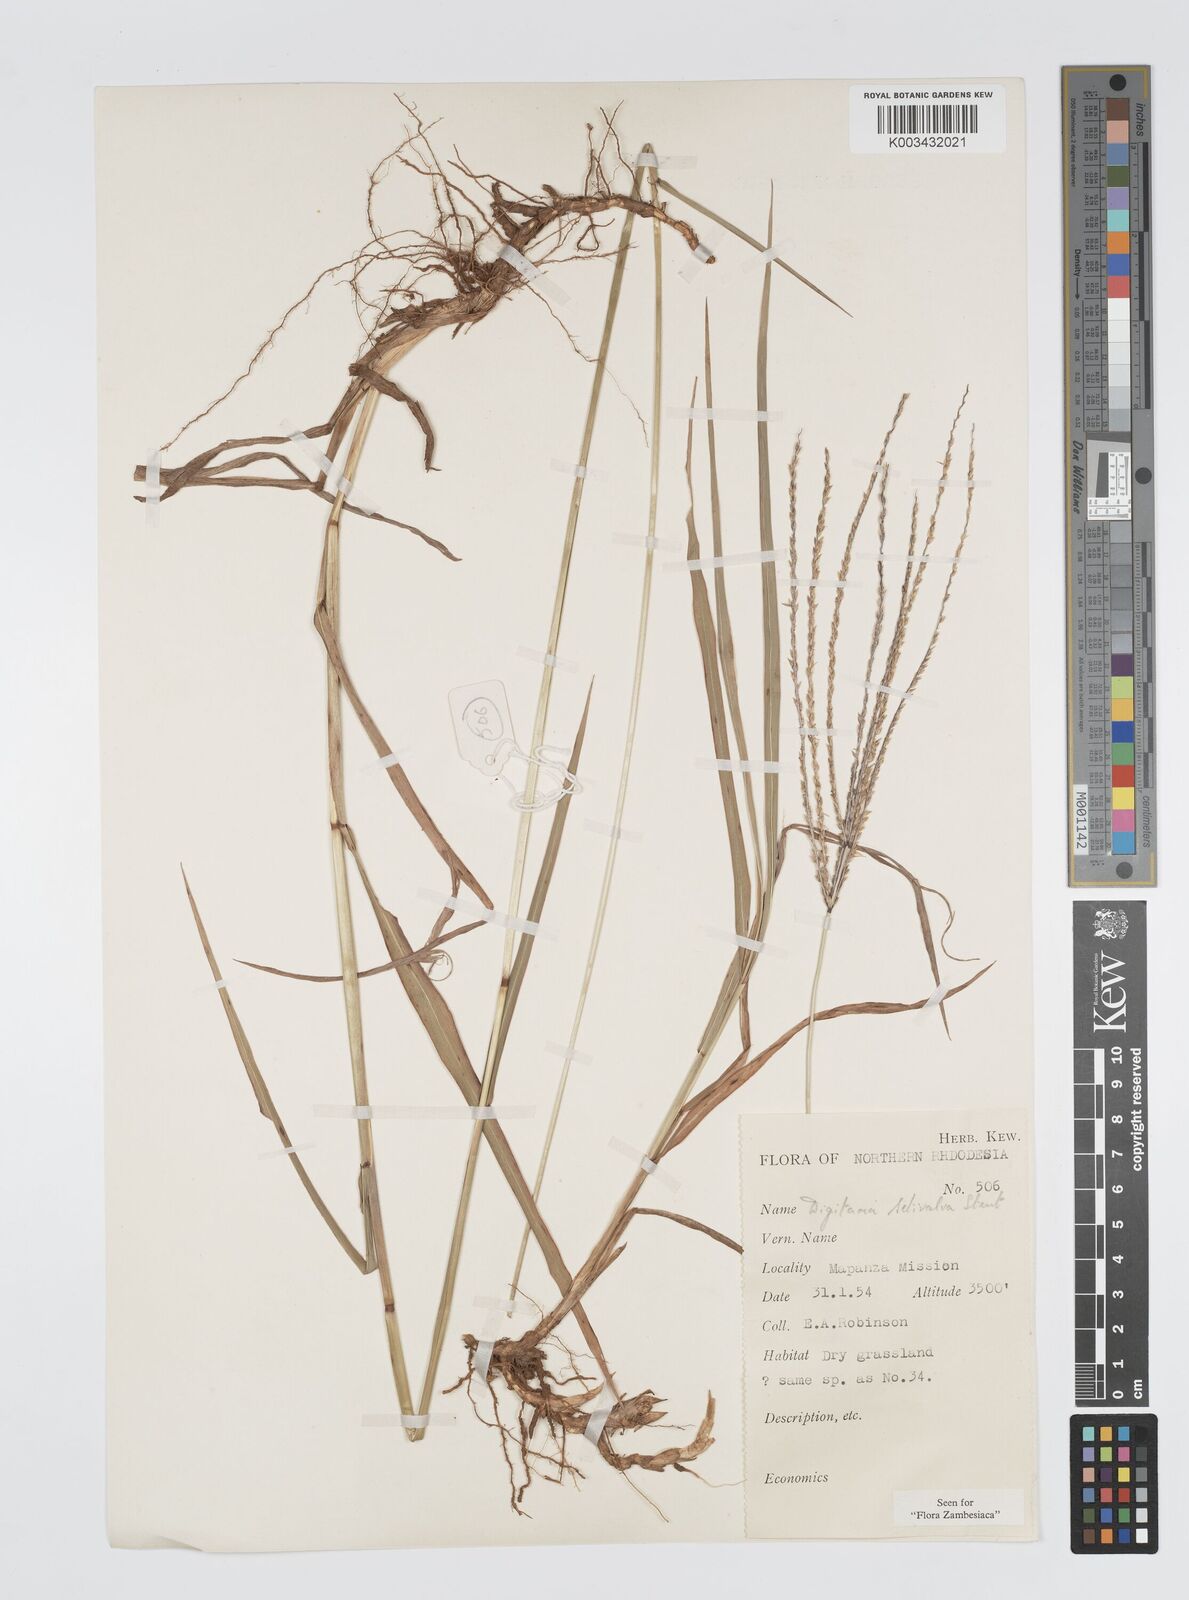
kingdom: Plantae
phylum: Tracheophyta
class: Liliopsida
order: Poales
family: Poaceae
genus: Digitaria
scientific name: Digitaria milanjiana
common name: Madagascar crabgrass
